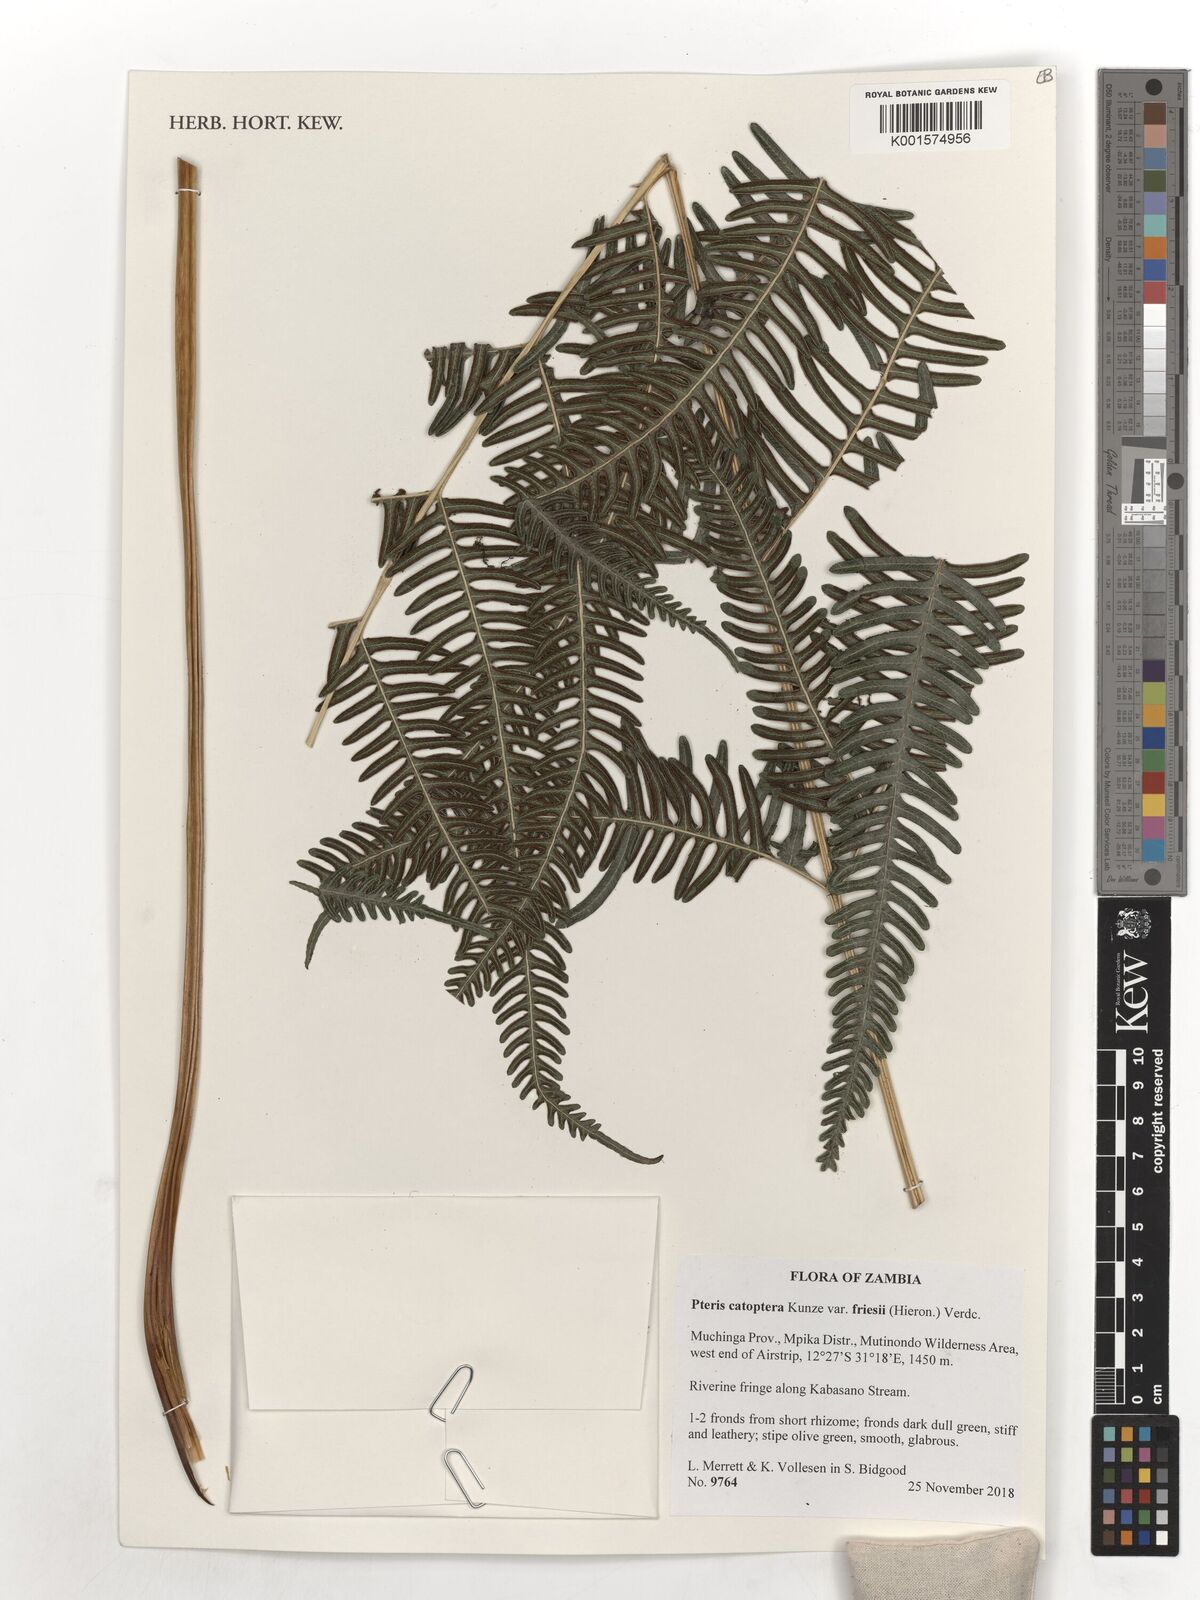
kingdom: Plantae
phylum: Tracheophyta
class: Polypodiopsida
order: Polypodiales
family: Pteridaceae
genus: Pteris
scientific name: Pteris friesii
